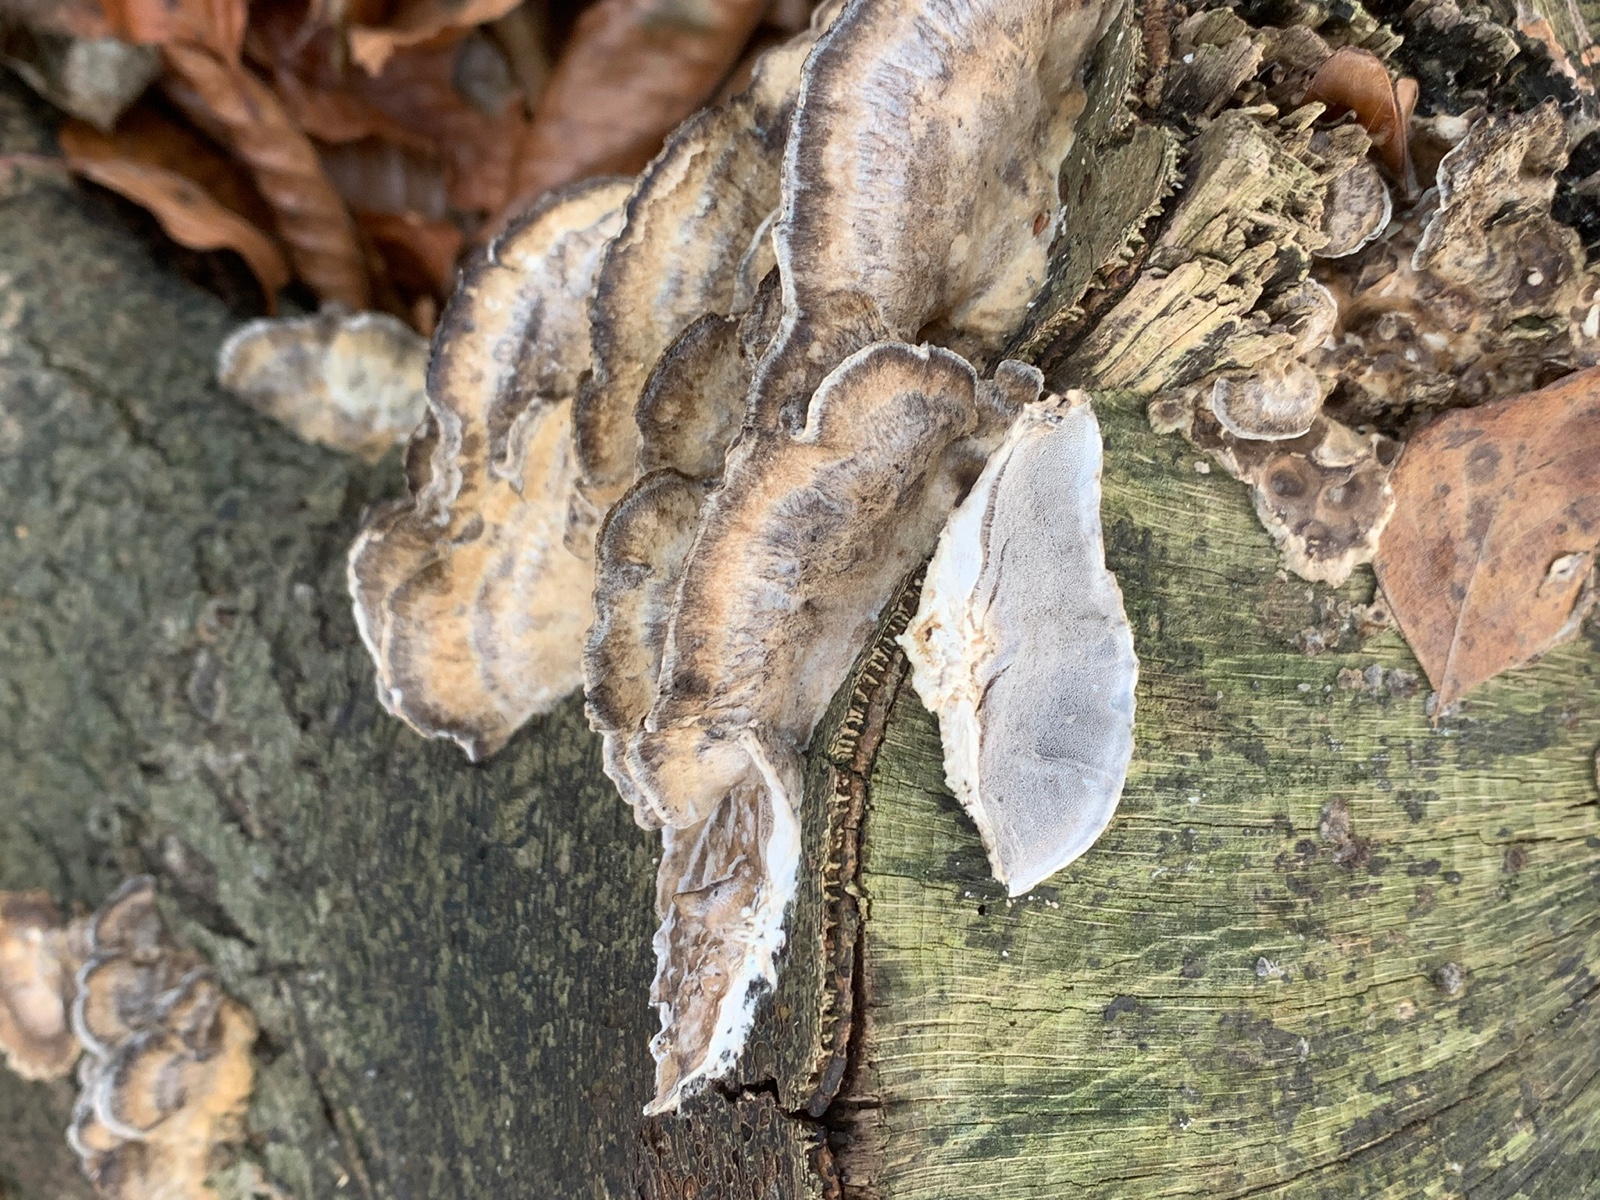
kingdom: Fungi
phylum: Basidiomycota
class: Agaricomycetes
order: Polyporales
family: Phanerochaetaceae
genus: Bjerkandera
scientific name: Bjerkandera adusta
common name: sveden sodporesvamp
